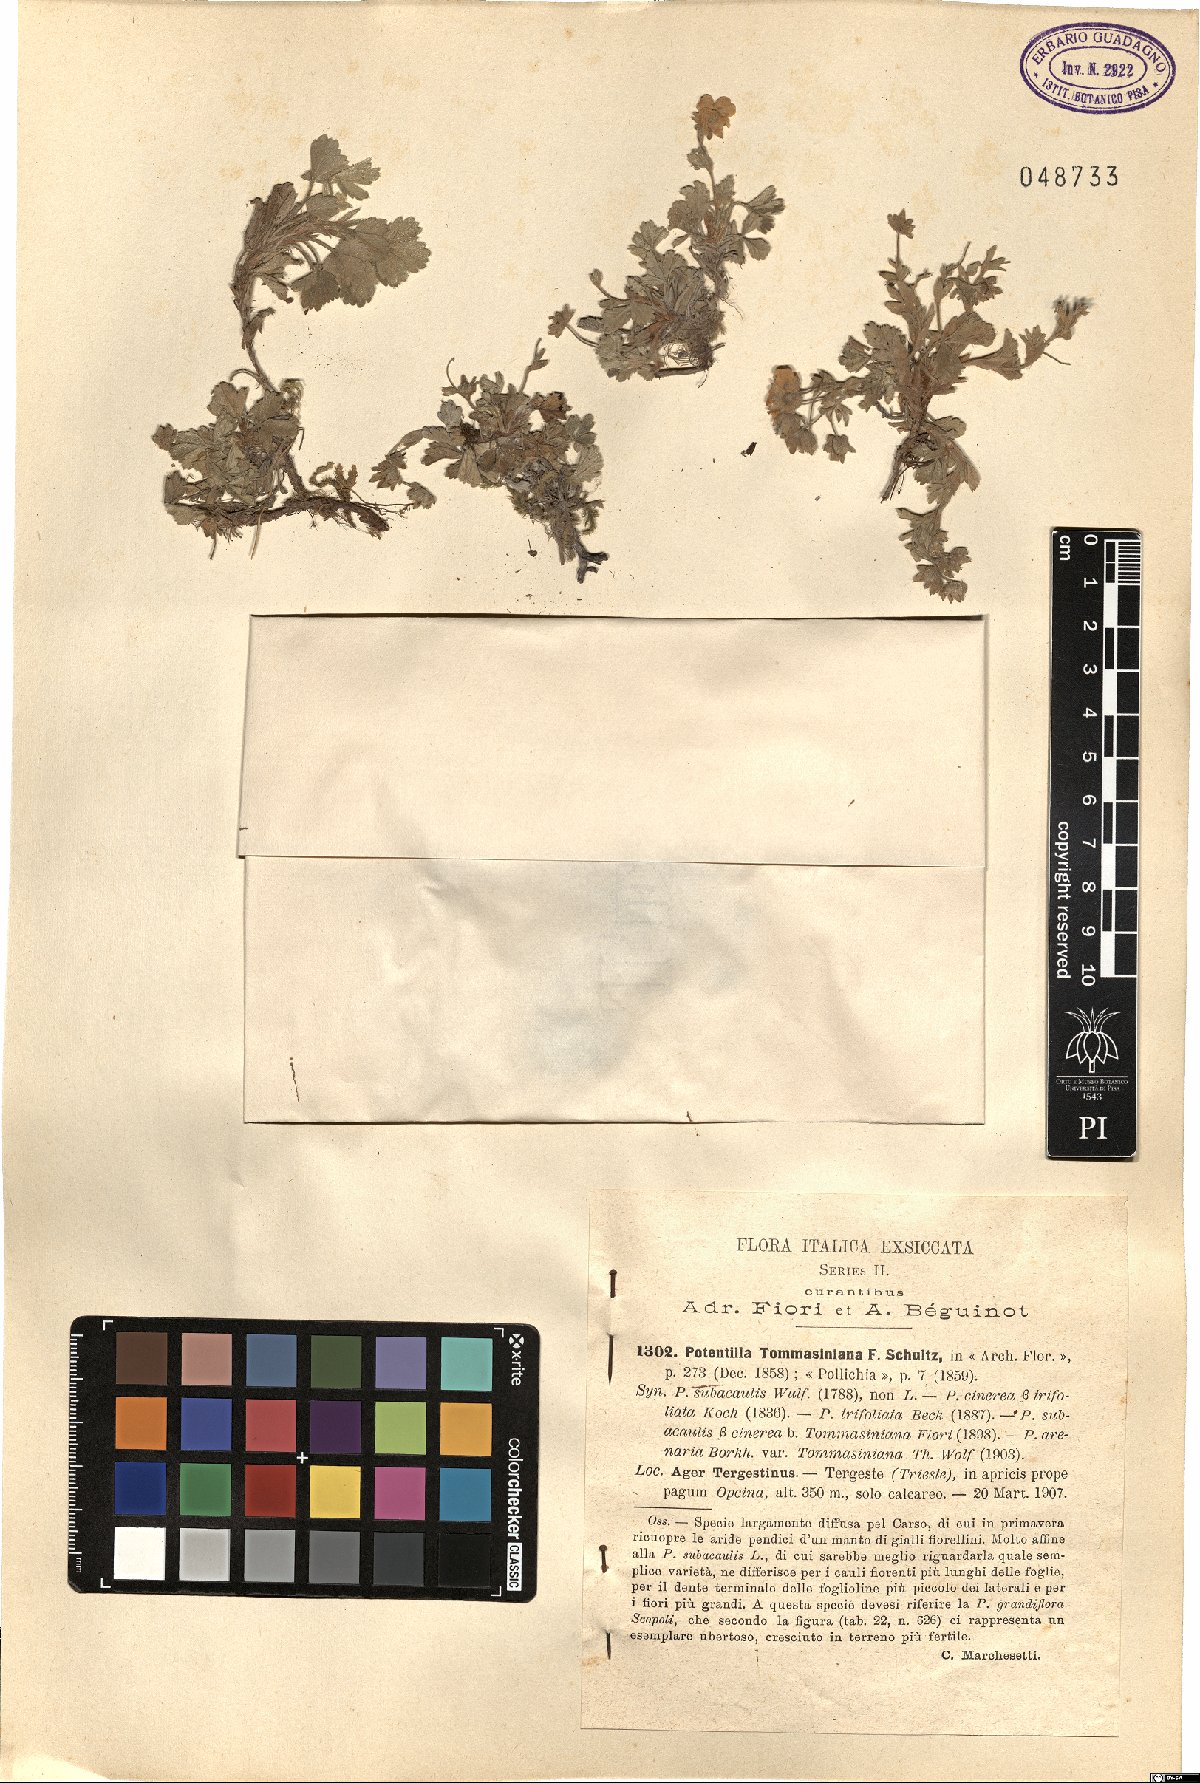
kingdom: Plantae
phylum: Tracheophyta
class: Magnoliopsida
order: Rosales
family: Rosaceae
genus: Potentilla
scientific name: Potentilla cinerea
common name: Ashy cinquefoil
